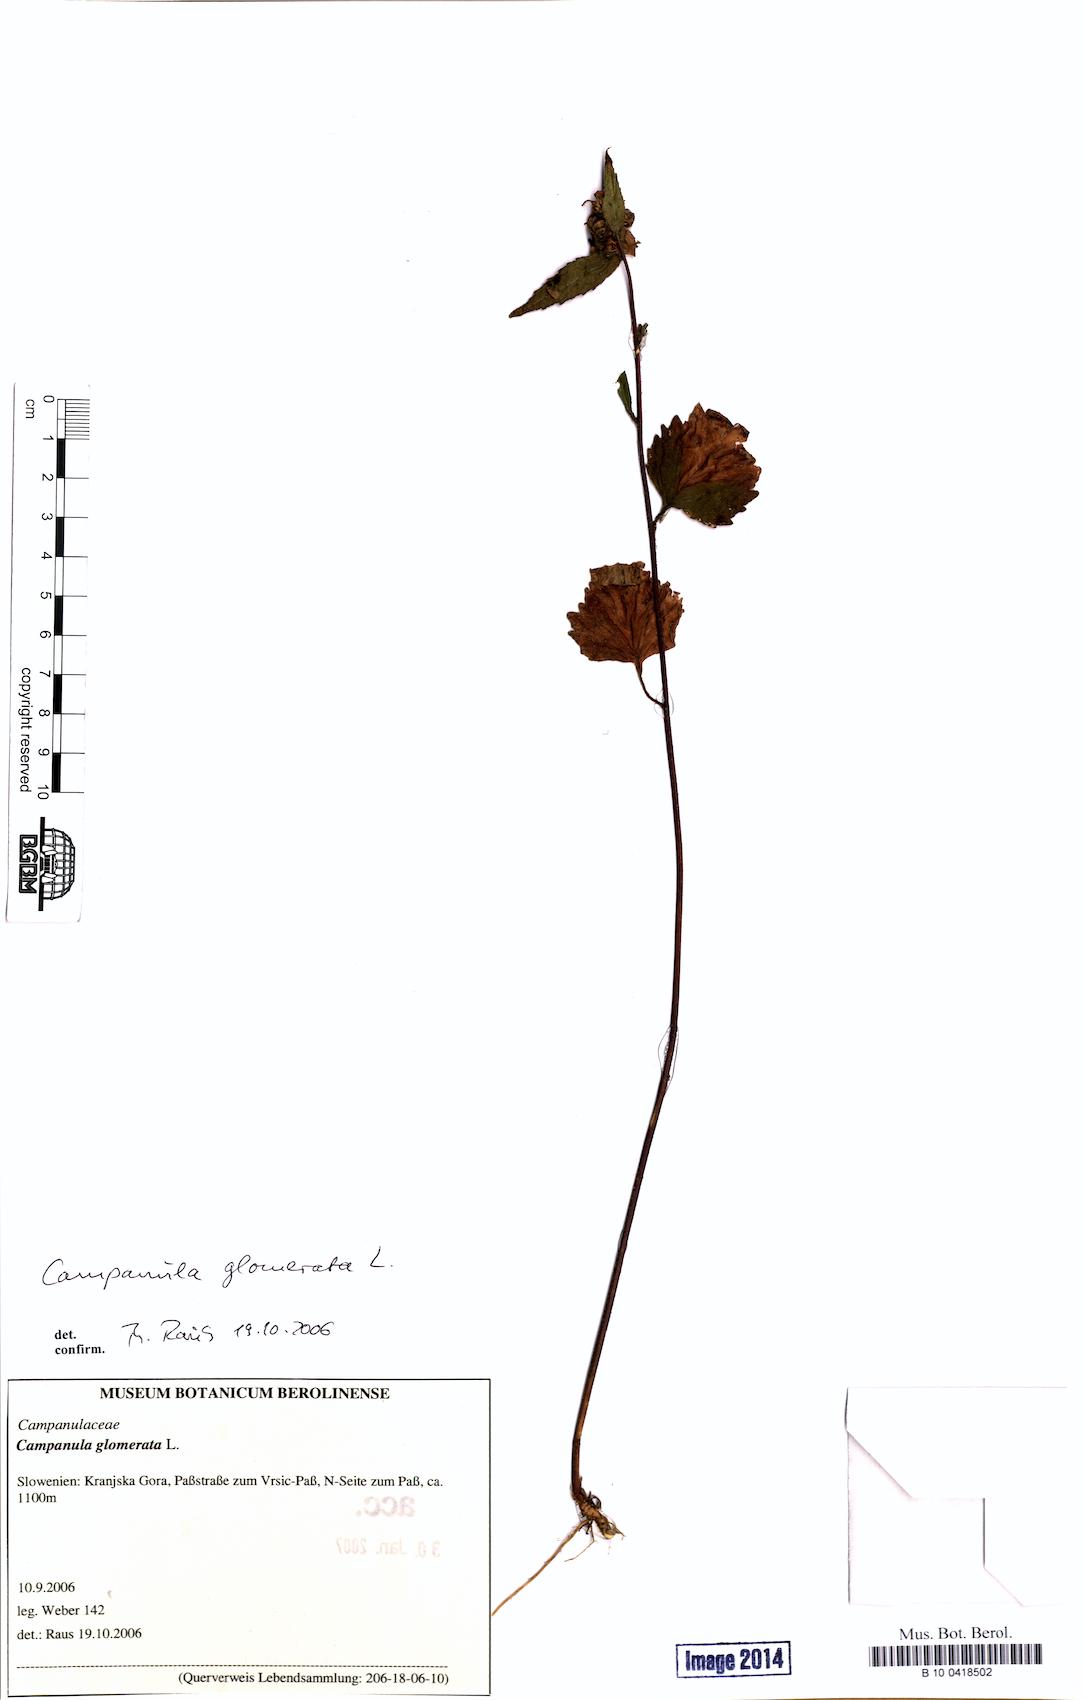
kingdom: Plantae
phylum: Tracheophyta
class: Magnoliopsida
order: Asterales
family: Campanulaceae
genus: Campanula
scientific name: Campanula glomerata
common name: Clustered bellflower
